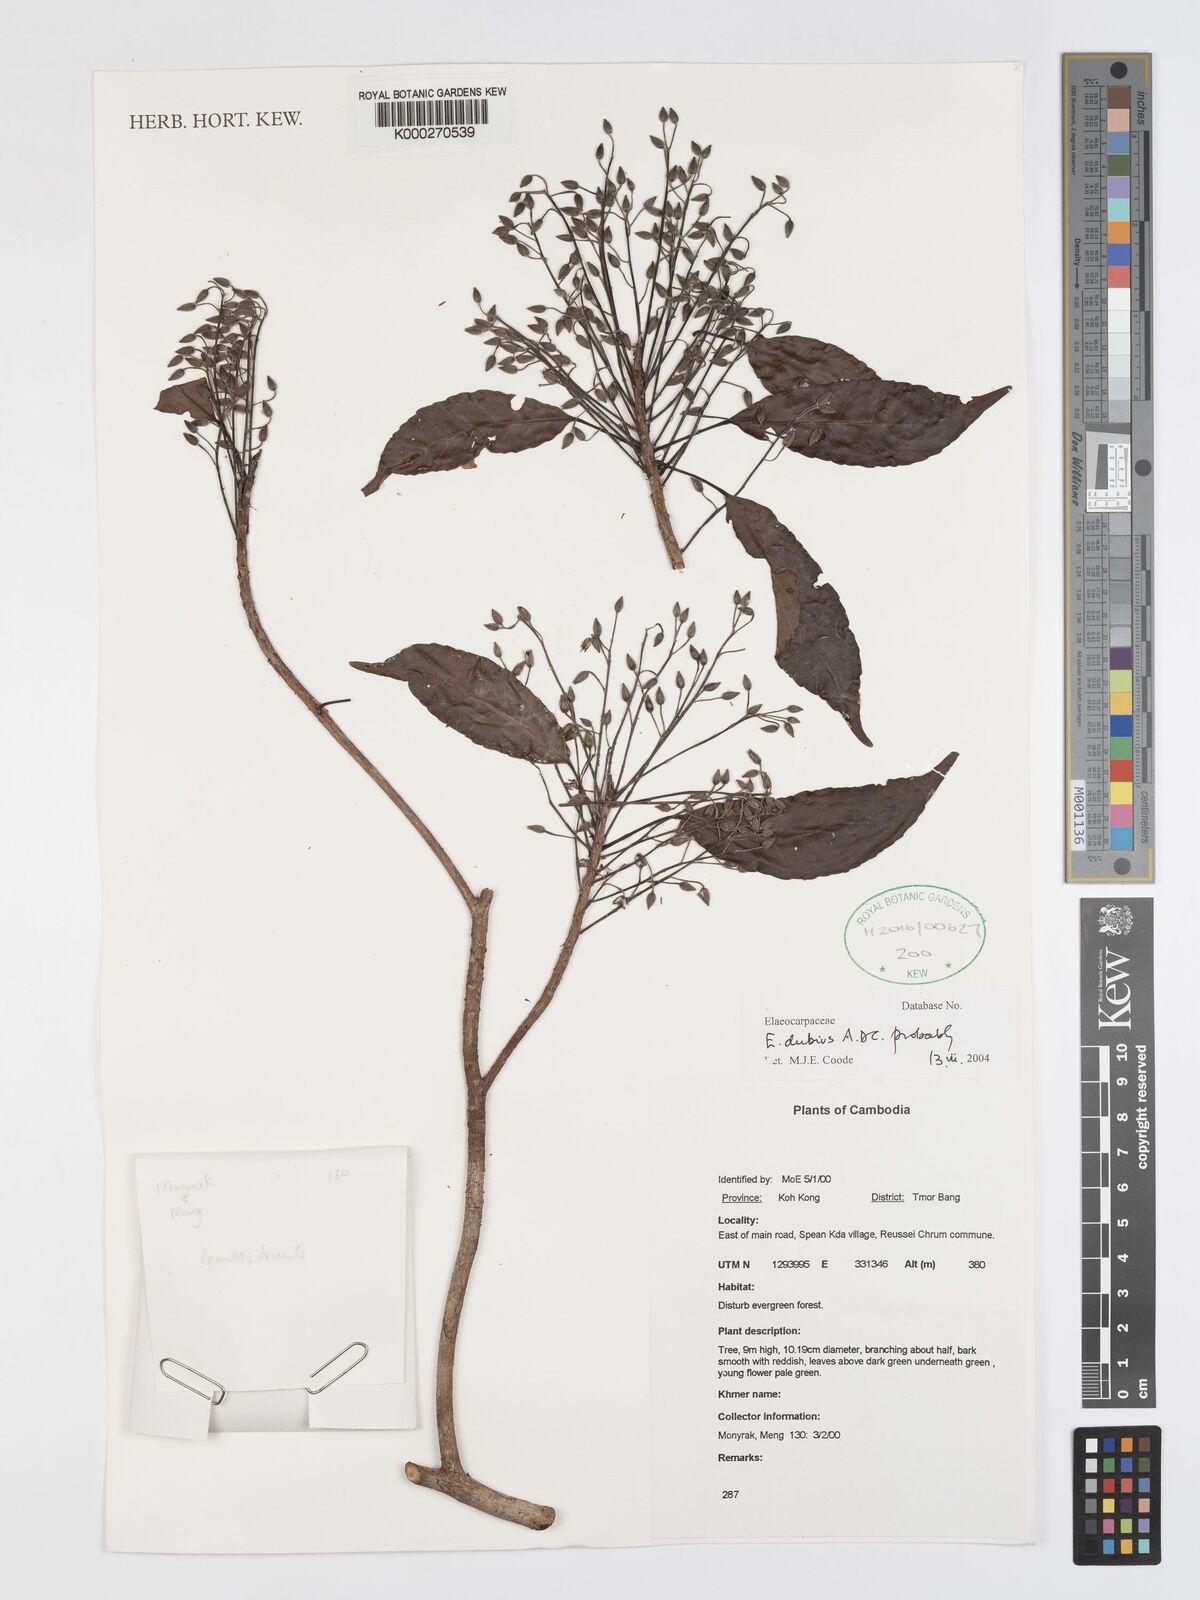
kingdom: Plantae
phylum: Tracheophyta
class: Magnoliopsida
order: Oxalidales
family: Elaeocarpaceae
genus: Elaeocarpus
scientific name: Elaeocarpus dubius
